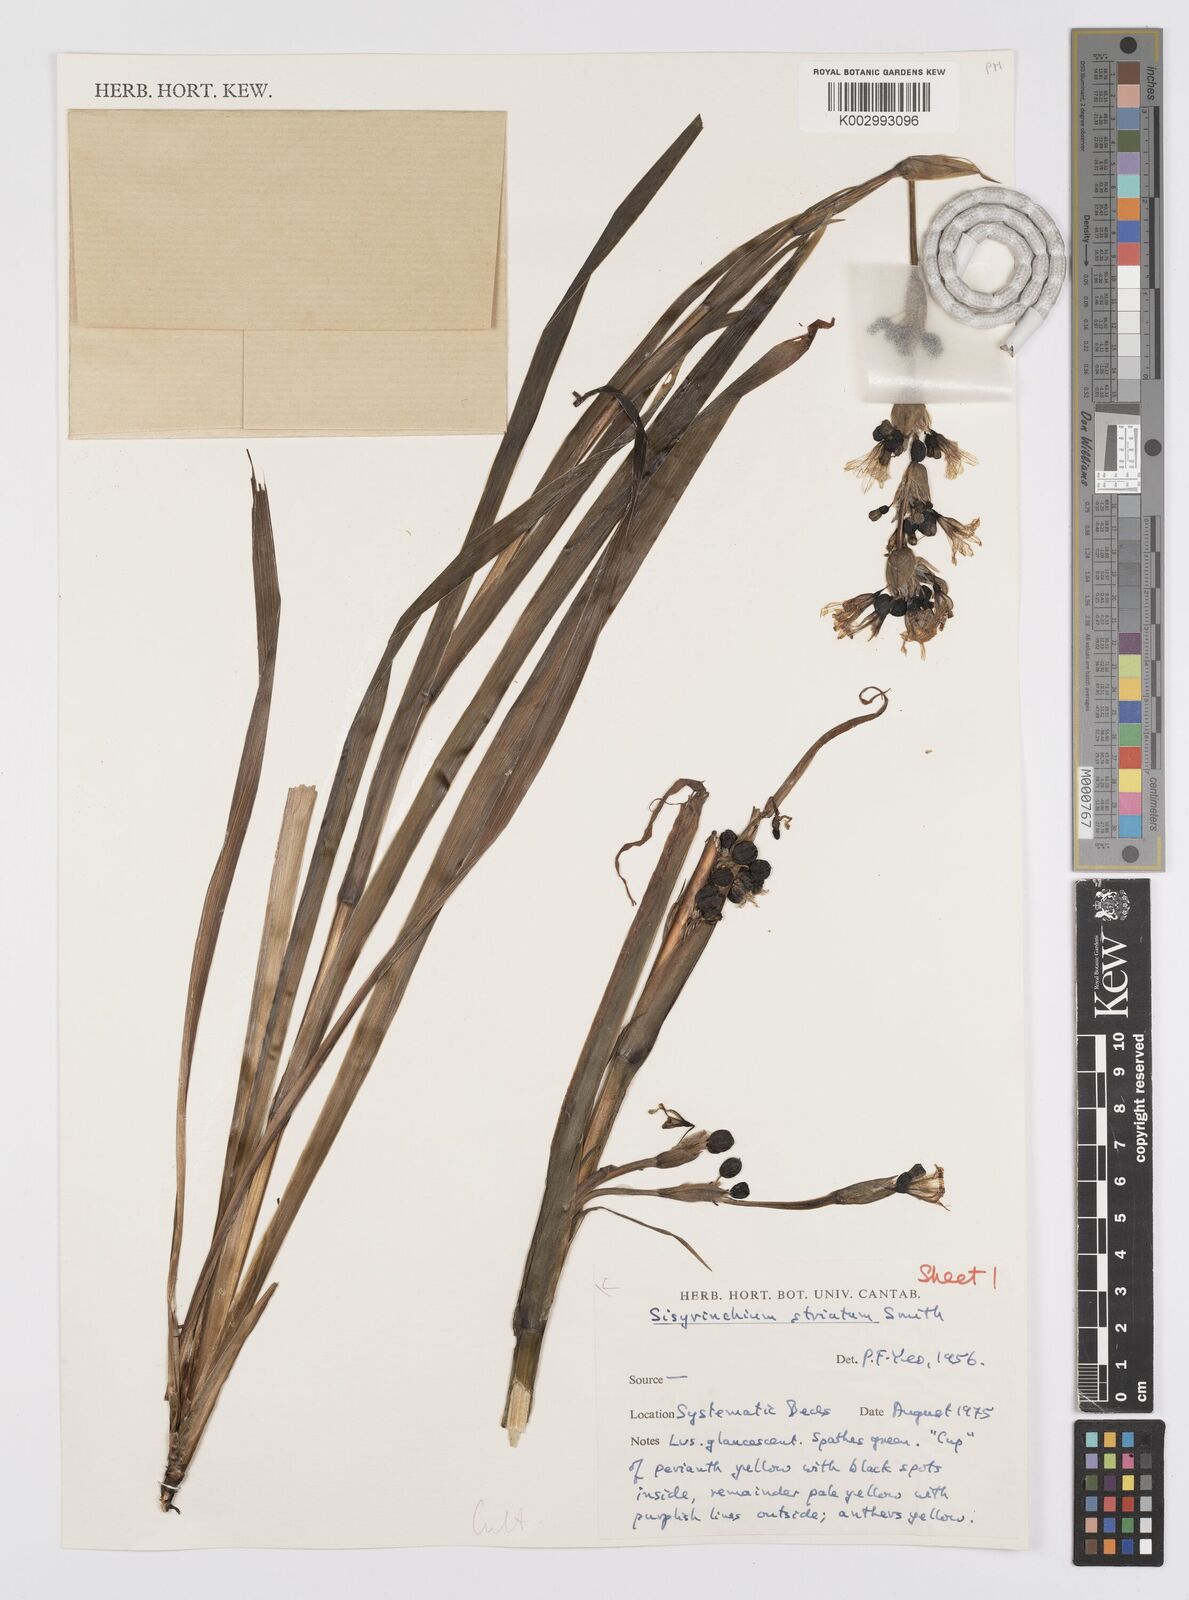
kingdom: Plantae
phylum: Tracheophyta
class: Liliopsida
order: Asparagales
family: Iridaceae
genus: Sisyrinchium
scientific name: Sisyrinchium striatum
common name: Pale yellow-eyed-grass
